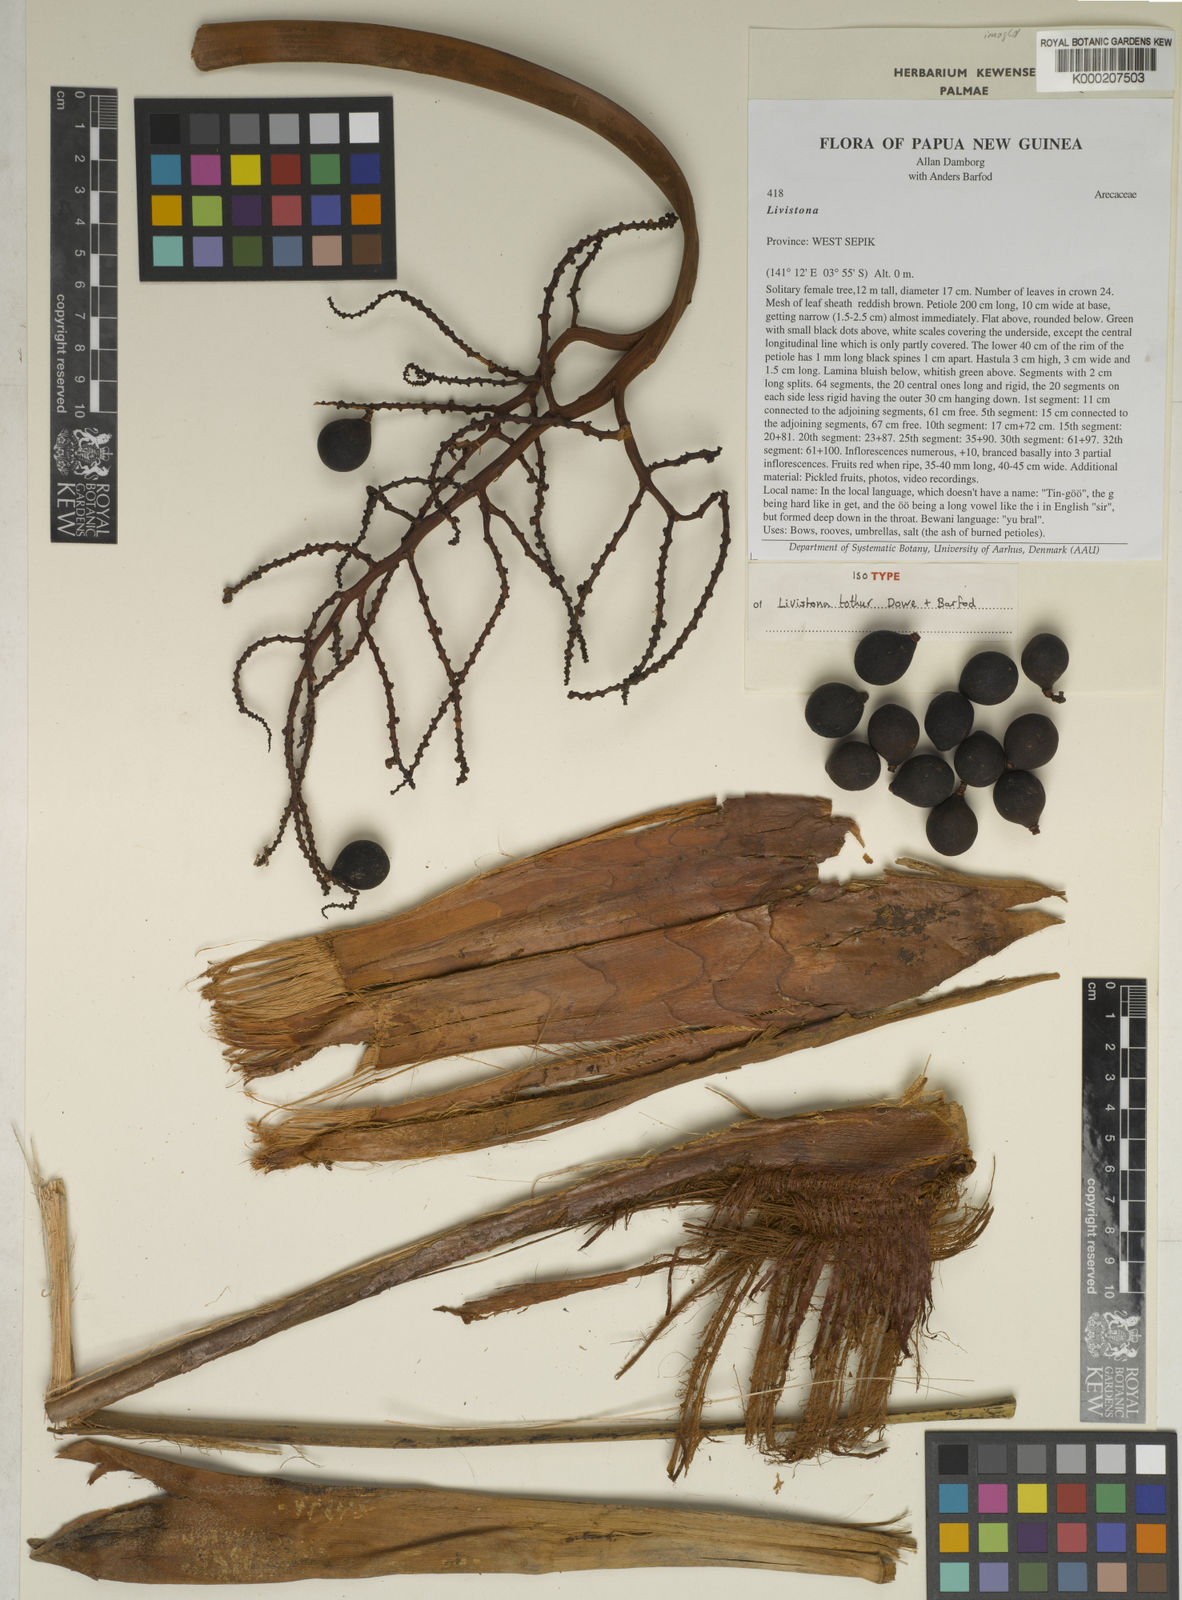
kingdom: Plantae
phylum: Tracheophyta
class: Liliopsida
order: Arecales
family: Arecaceae
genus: Saribus
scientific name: Saribus tothur
